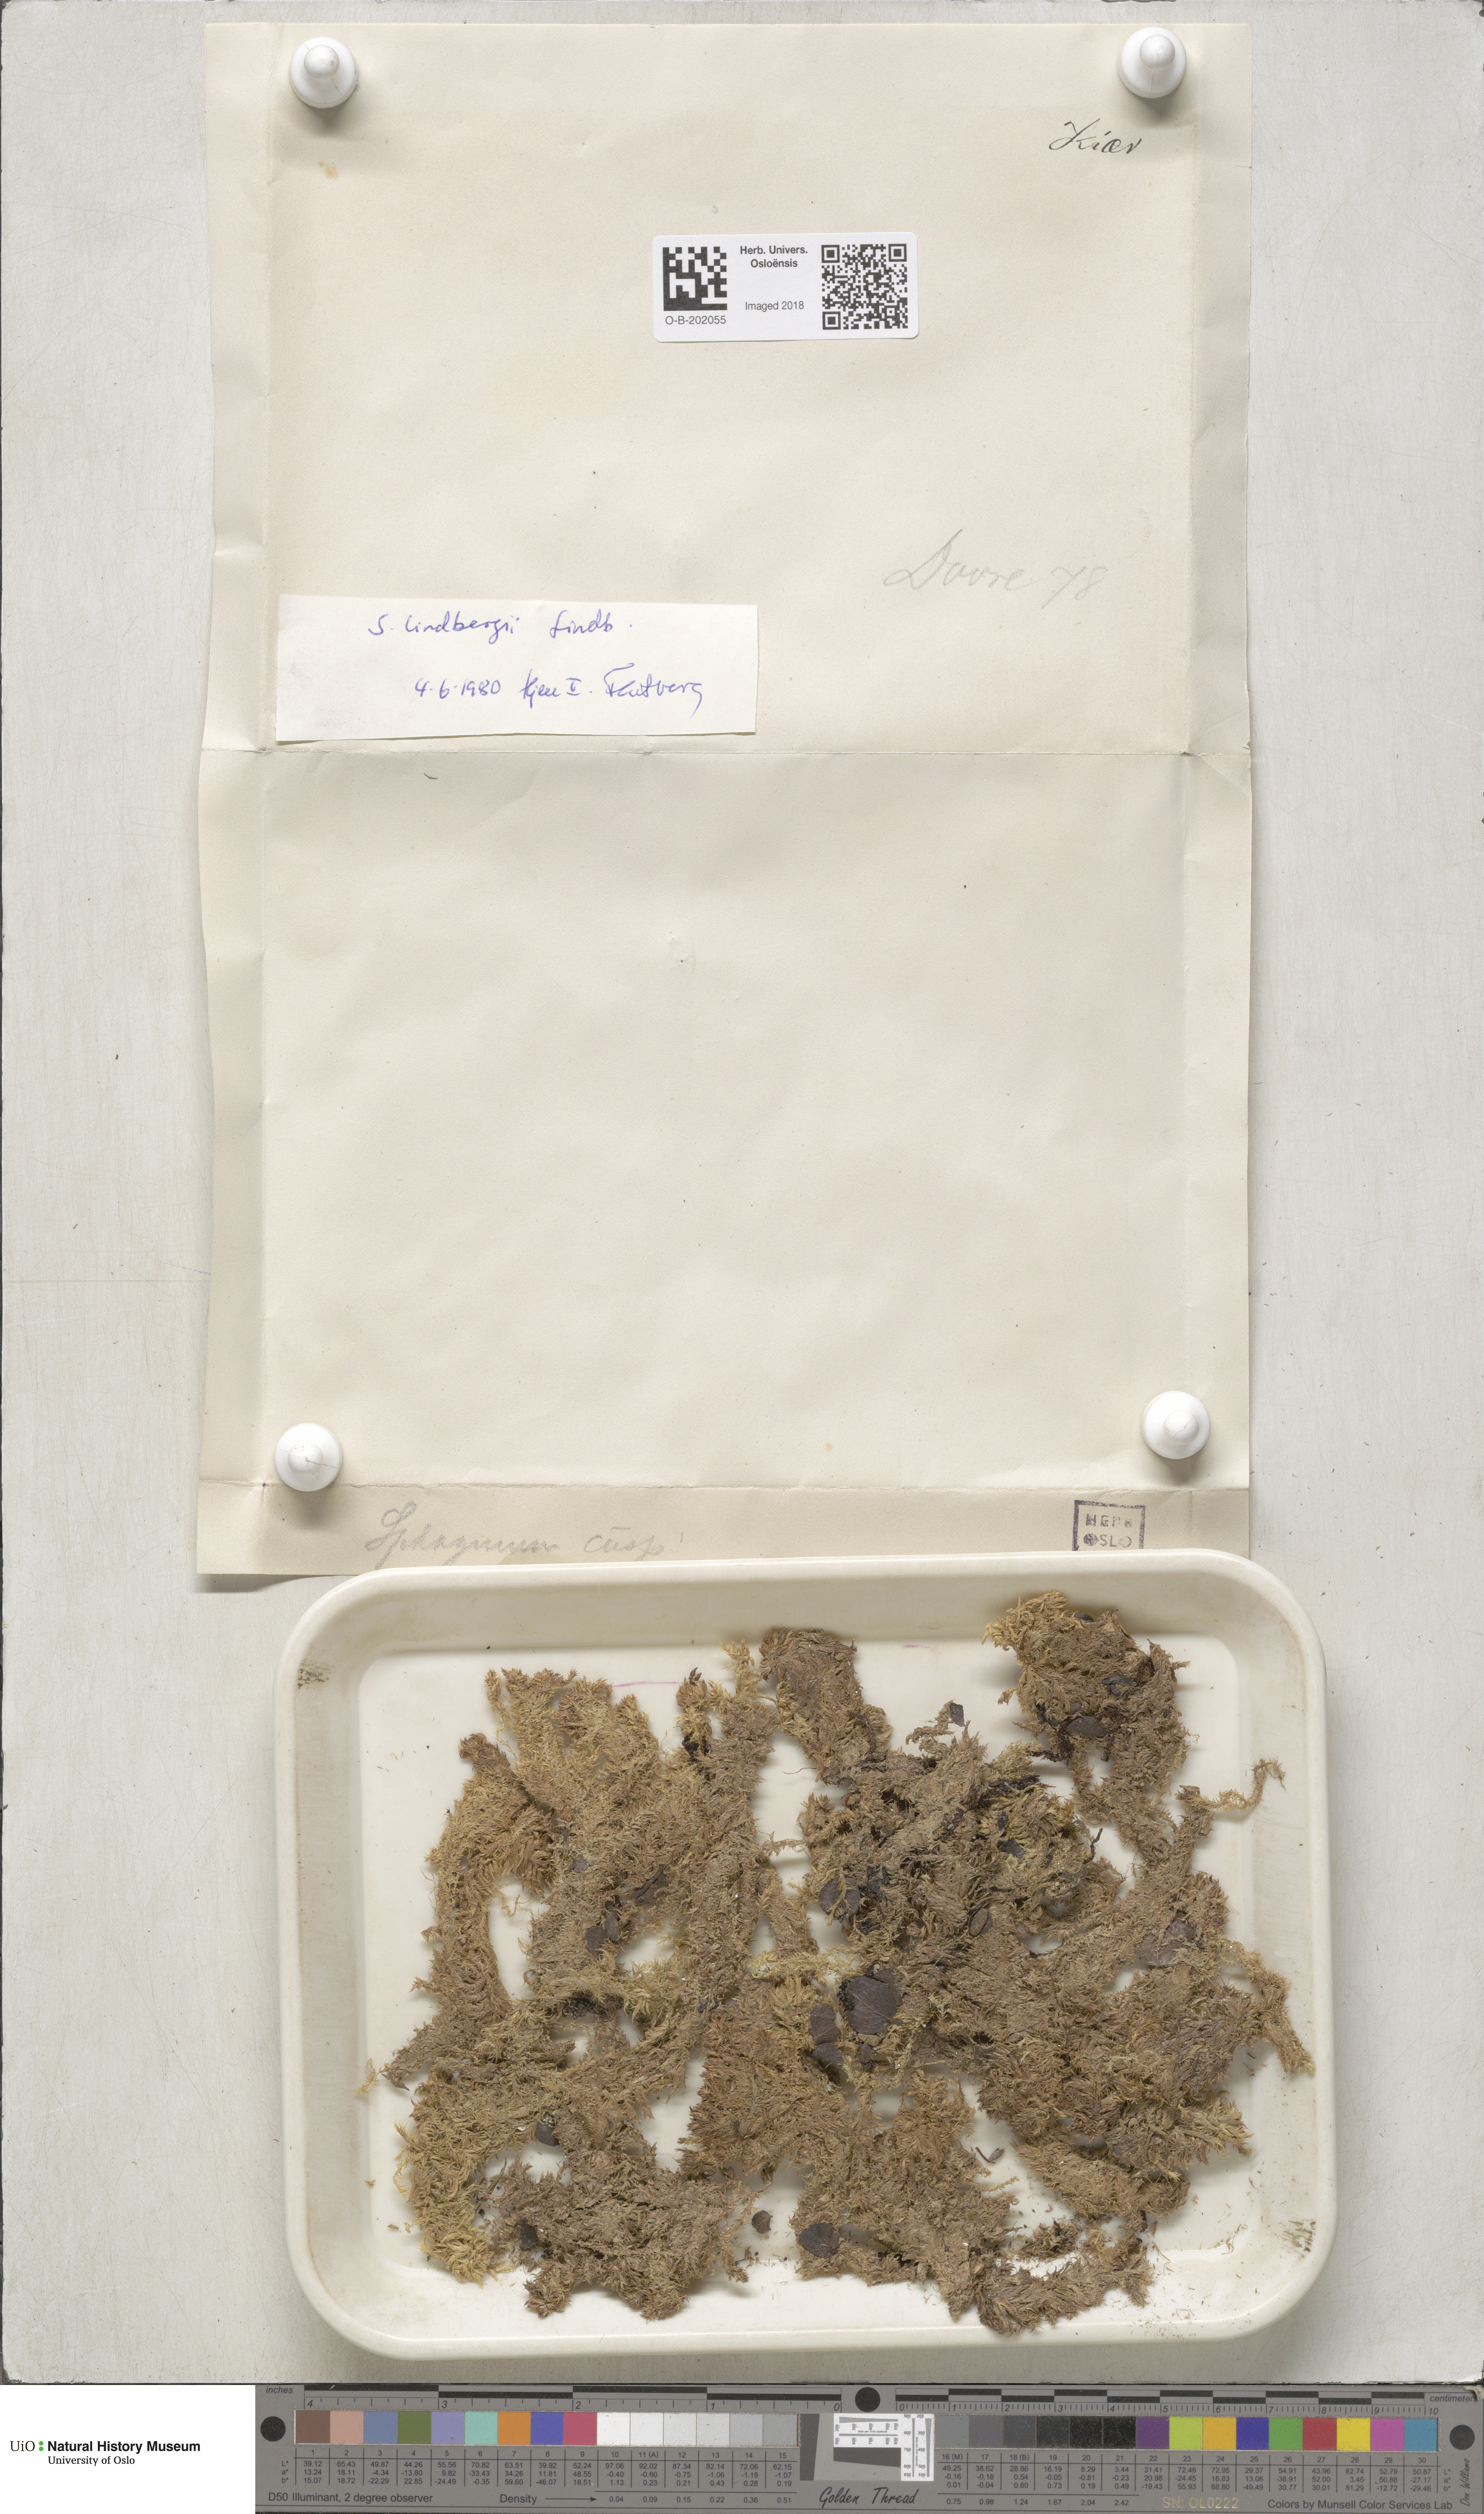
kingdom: Plantae
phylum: Bryophyta
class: Sphagnopsida
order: Sphagnales
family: Sphagnaceae
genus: Sphagnum
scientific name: Sphagnum lindbergii
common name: Lindberg's peat moss
